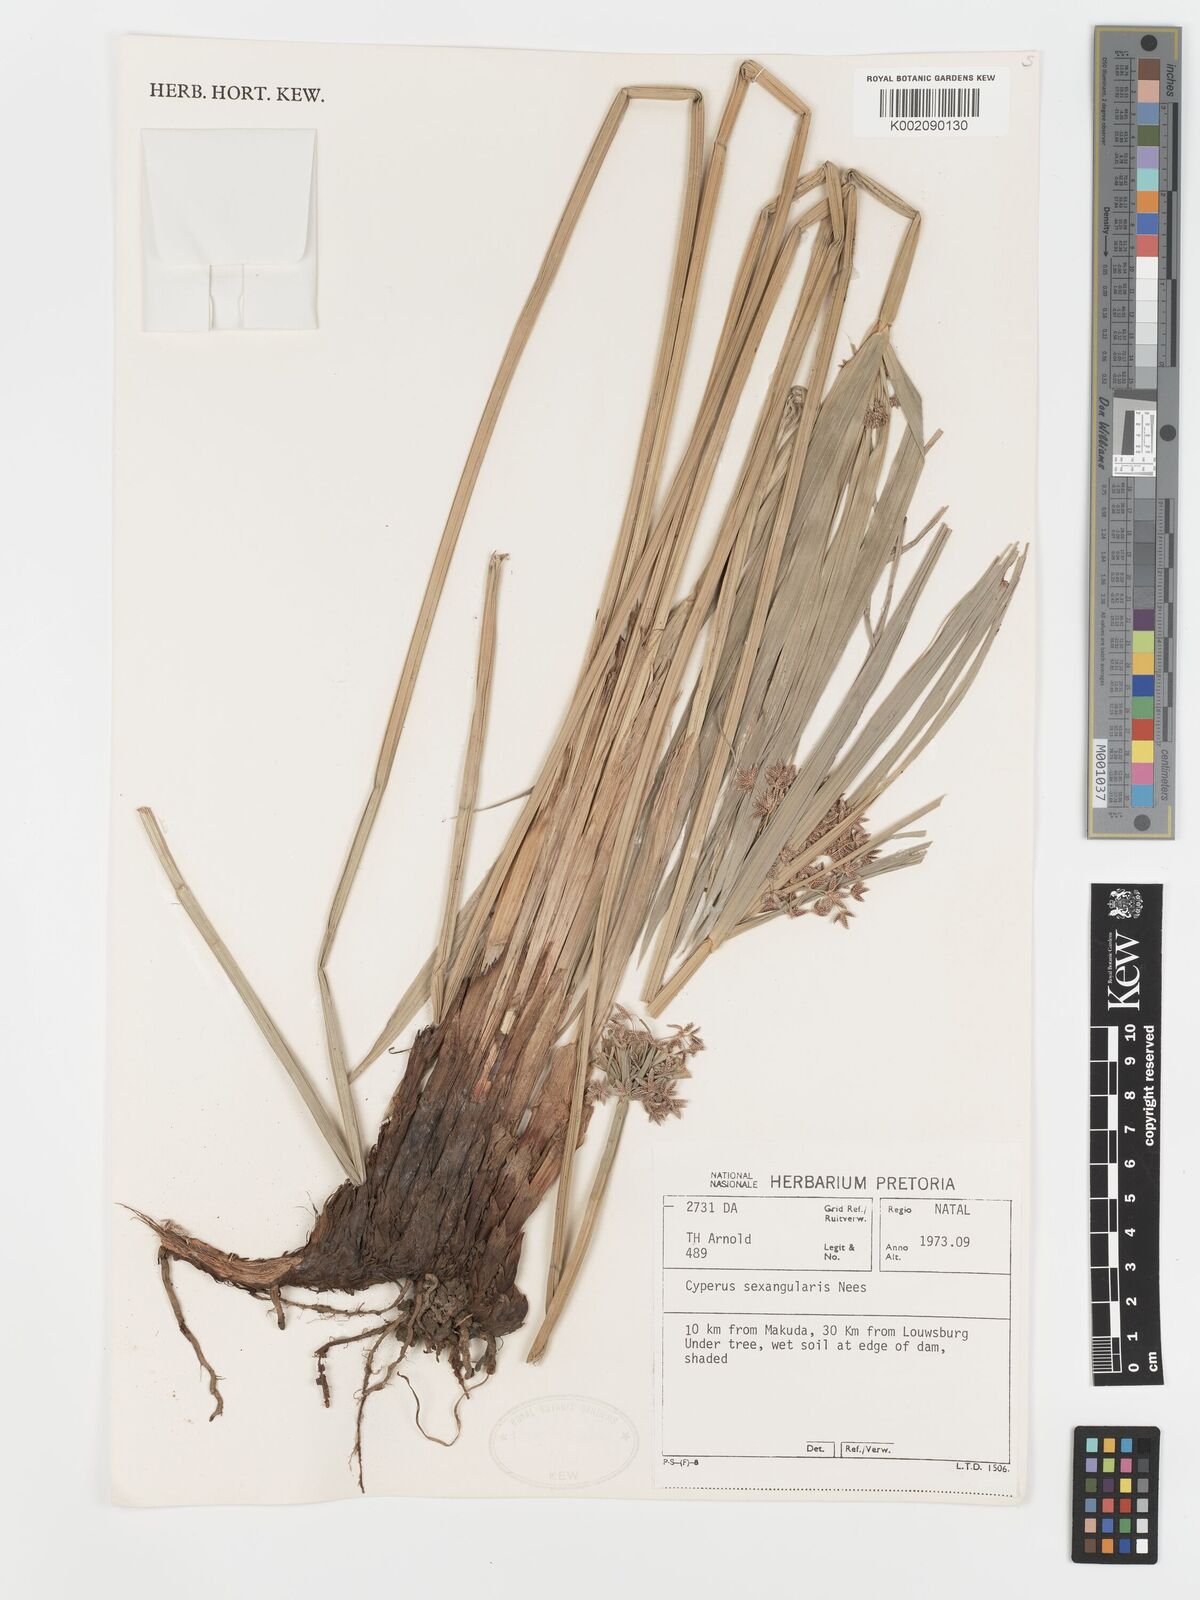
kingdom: Plantae
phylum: Tracheophyta
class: Liliopsida
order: Poales
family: Cyperaceae
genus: Cyperus
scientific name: Cyperus sexangularis
